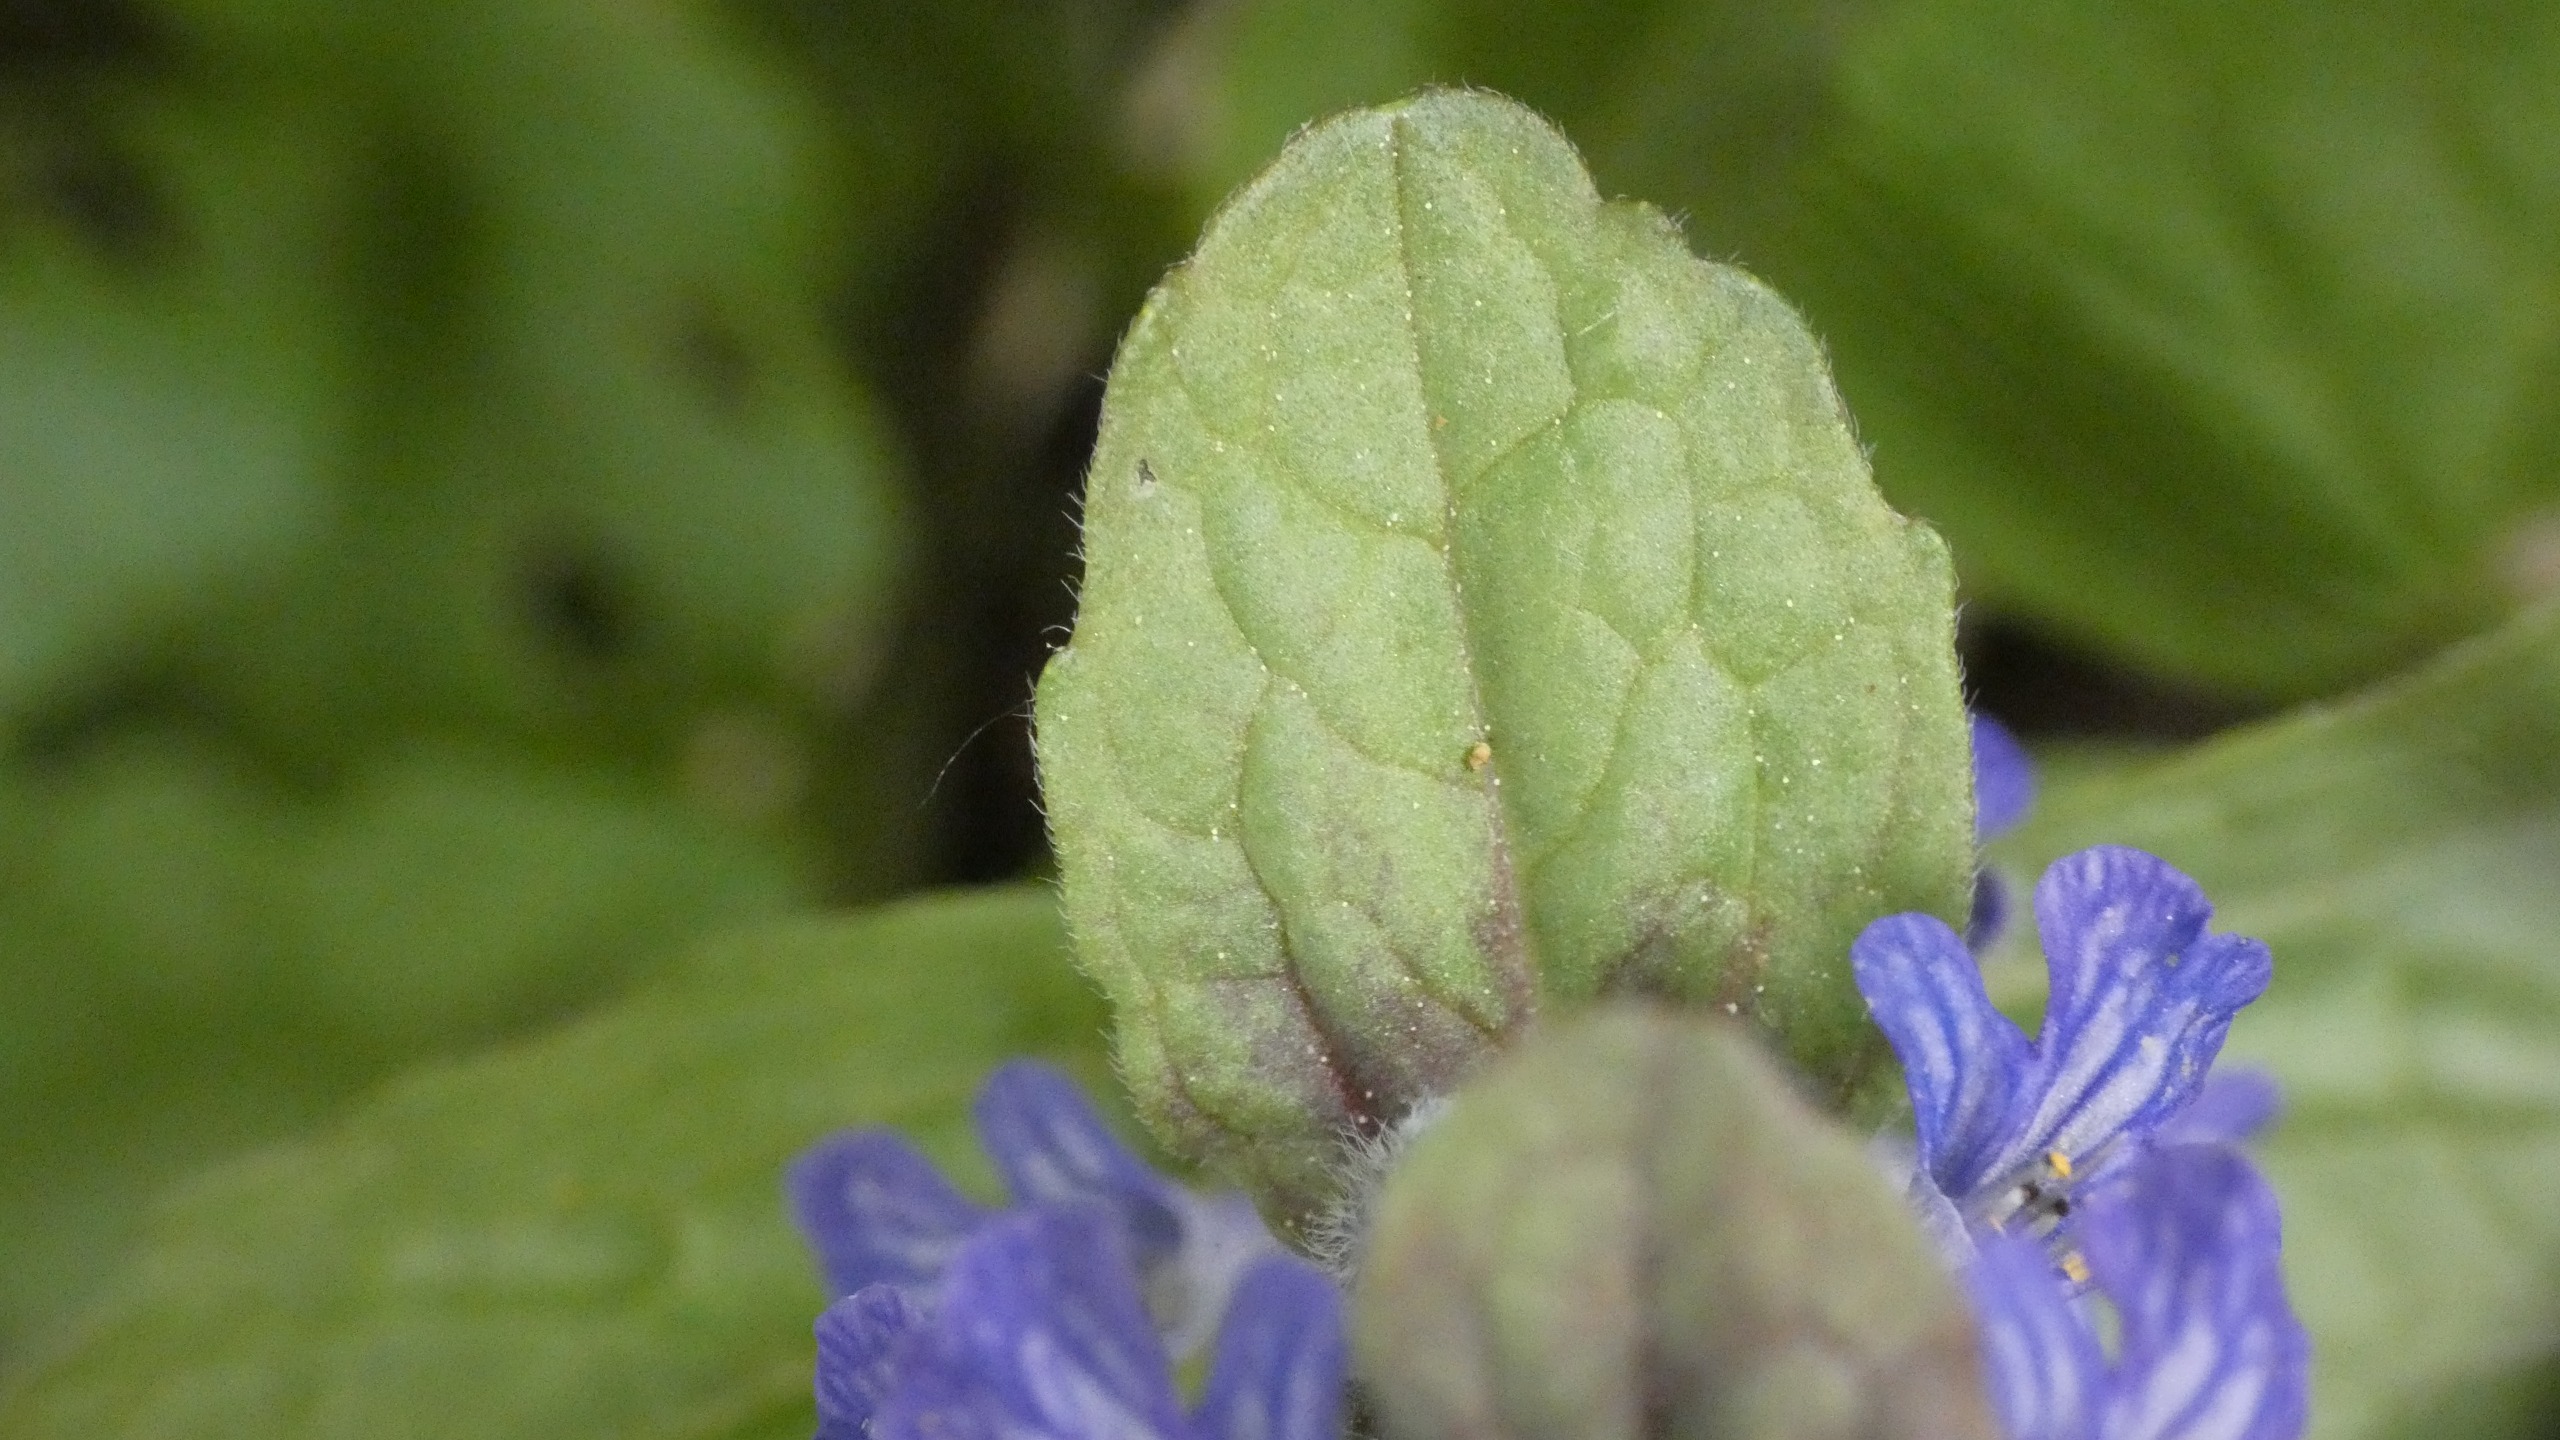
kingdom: Plantae
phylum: Tracheophyta
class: Magnoliopsida
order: Lamiales
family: Lamiaceae
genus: Ajuga
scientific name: Ajuga reptans
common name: Krybende læbeløs
